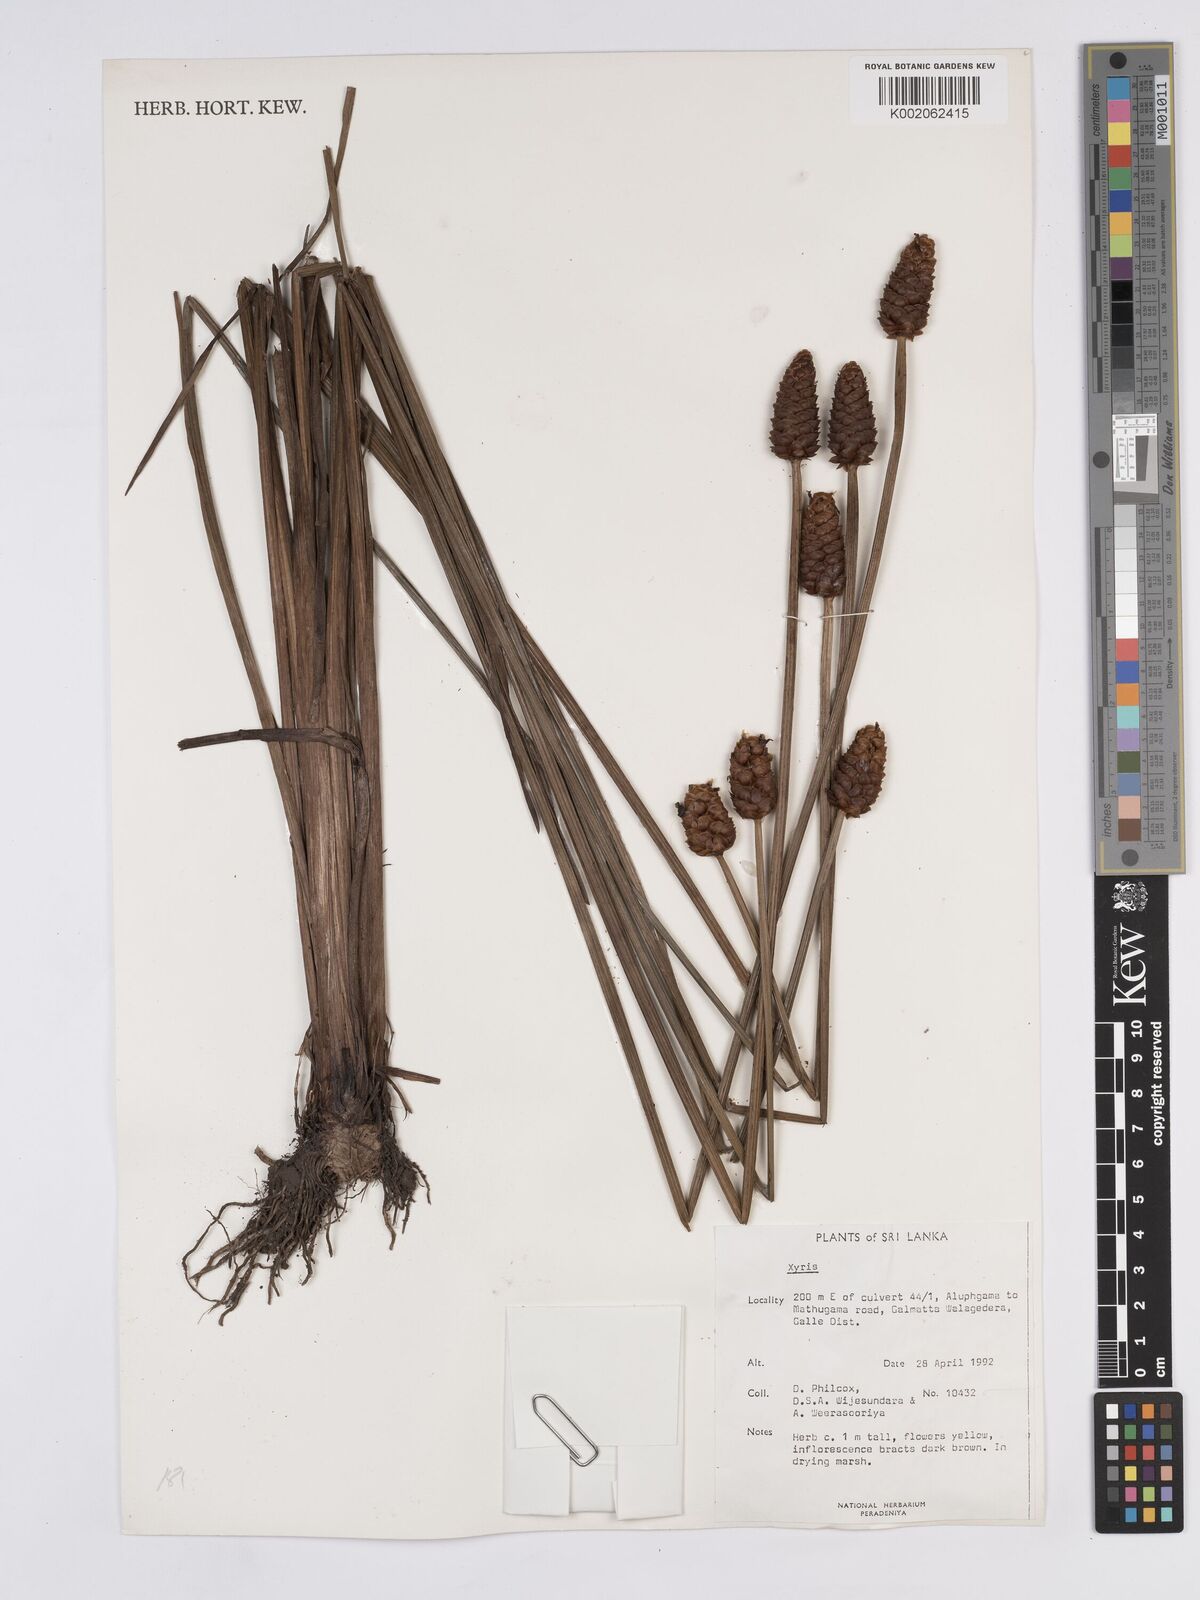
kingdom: Plantae
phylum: Tracheophyta
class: Liliopsida
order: Poales
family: Xyridaceae
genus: Xyris
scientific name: Xyris
